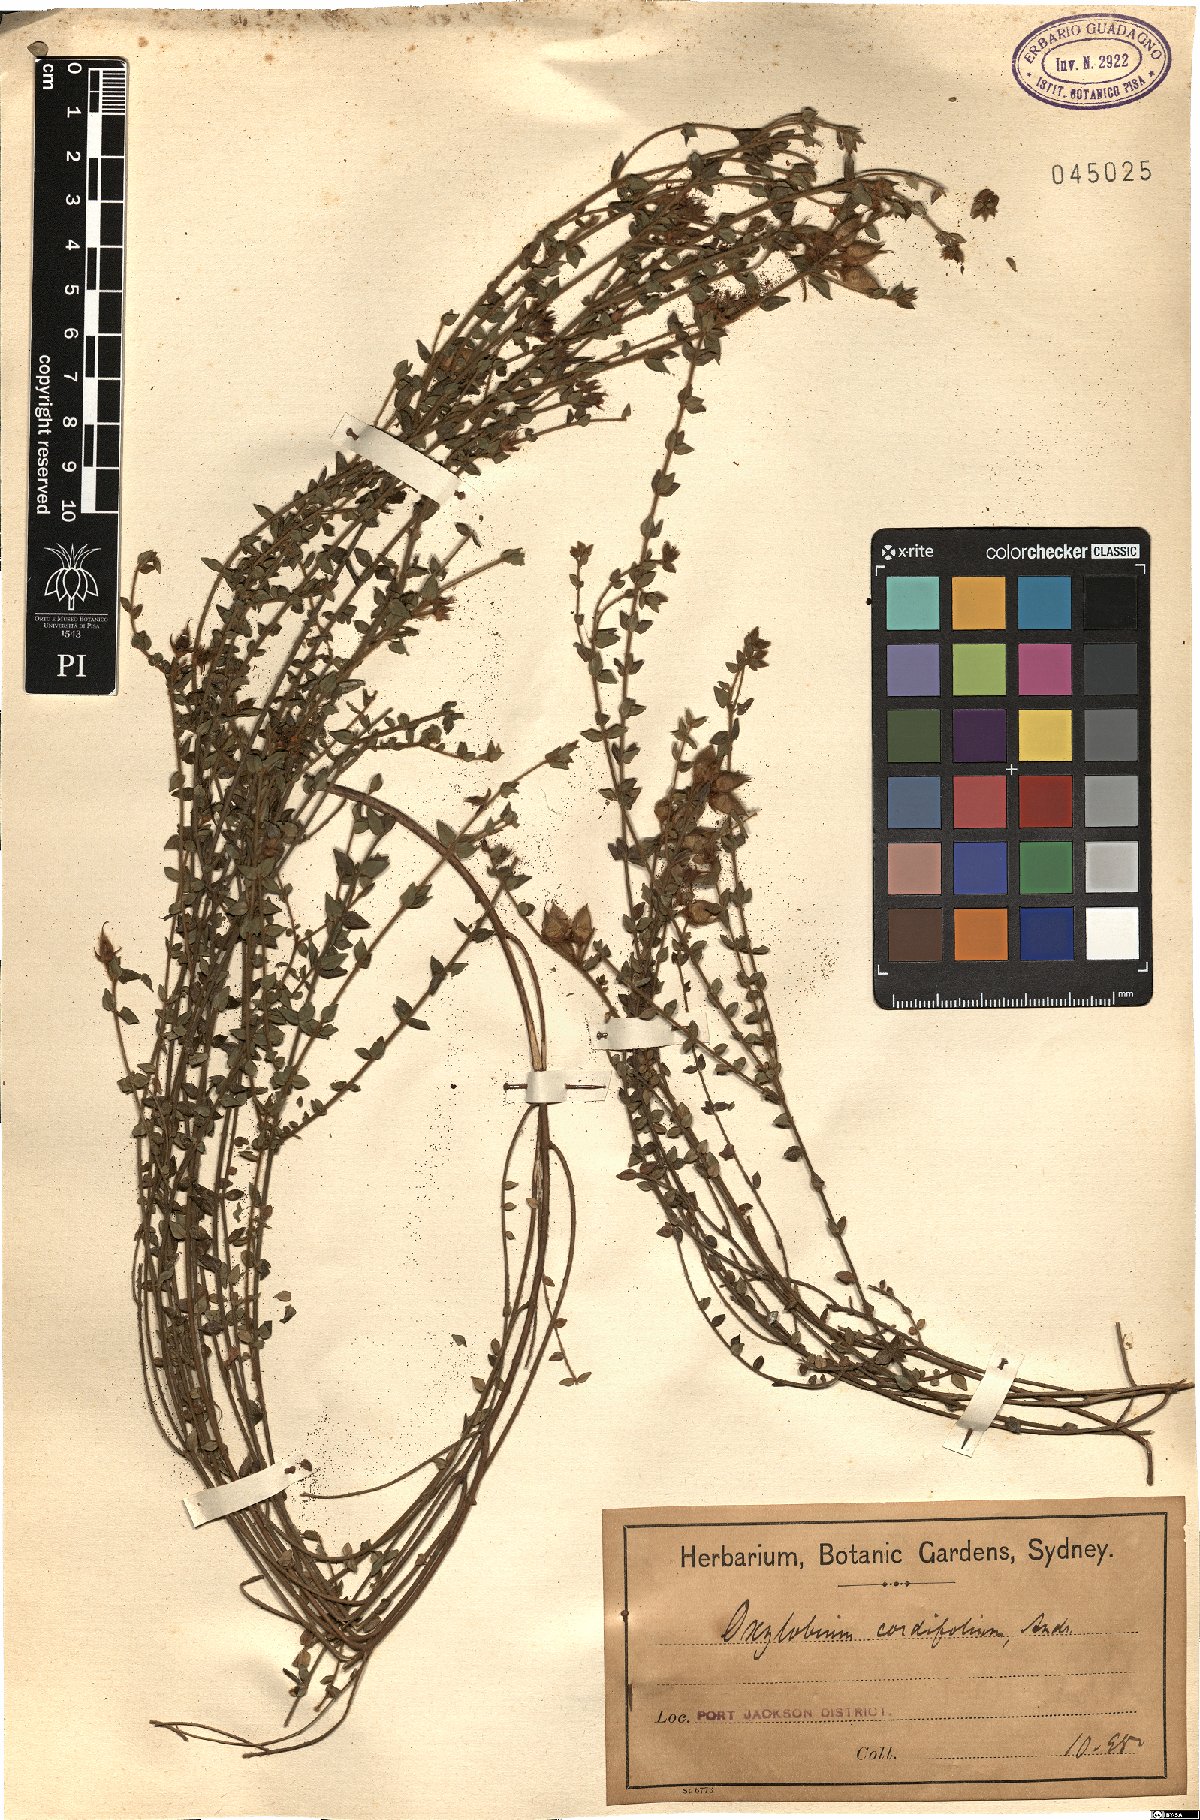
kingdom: Plantae
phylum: Tracheophyta
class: Magnoliopsida
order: Fabales
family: Fabaceae
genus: Oxylobium
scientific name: Oxylobium cordifolium
